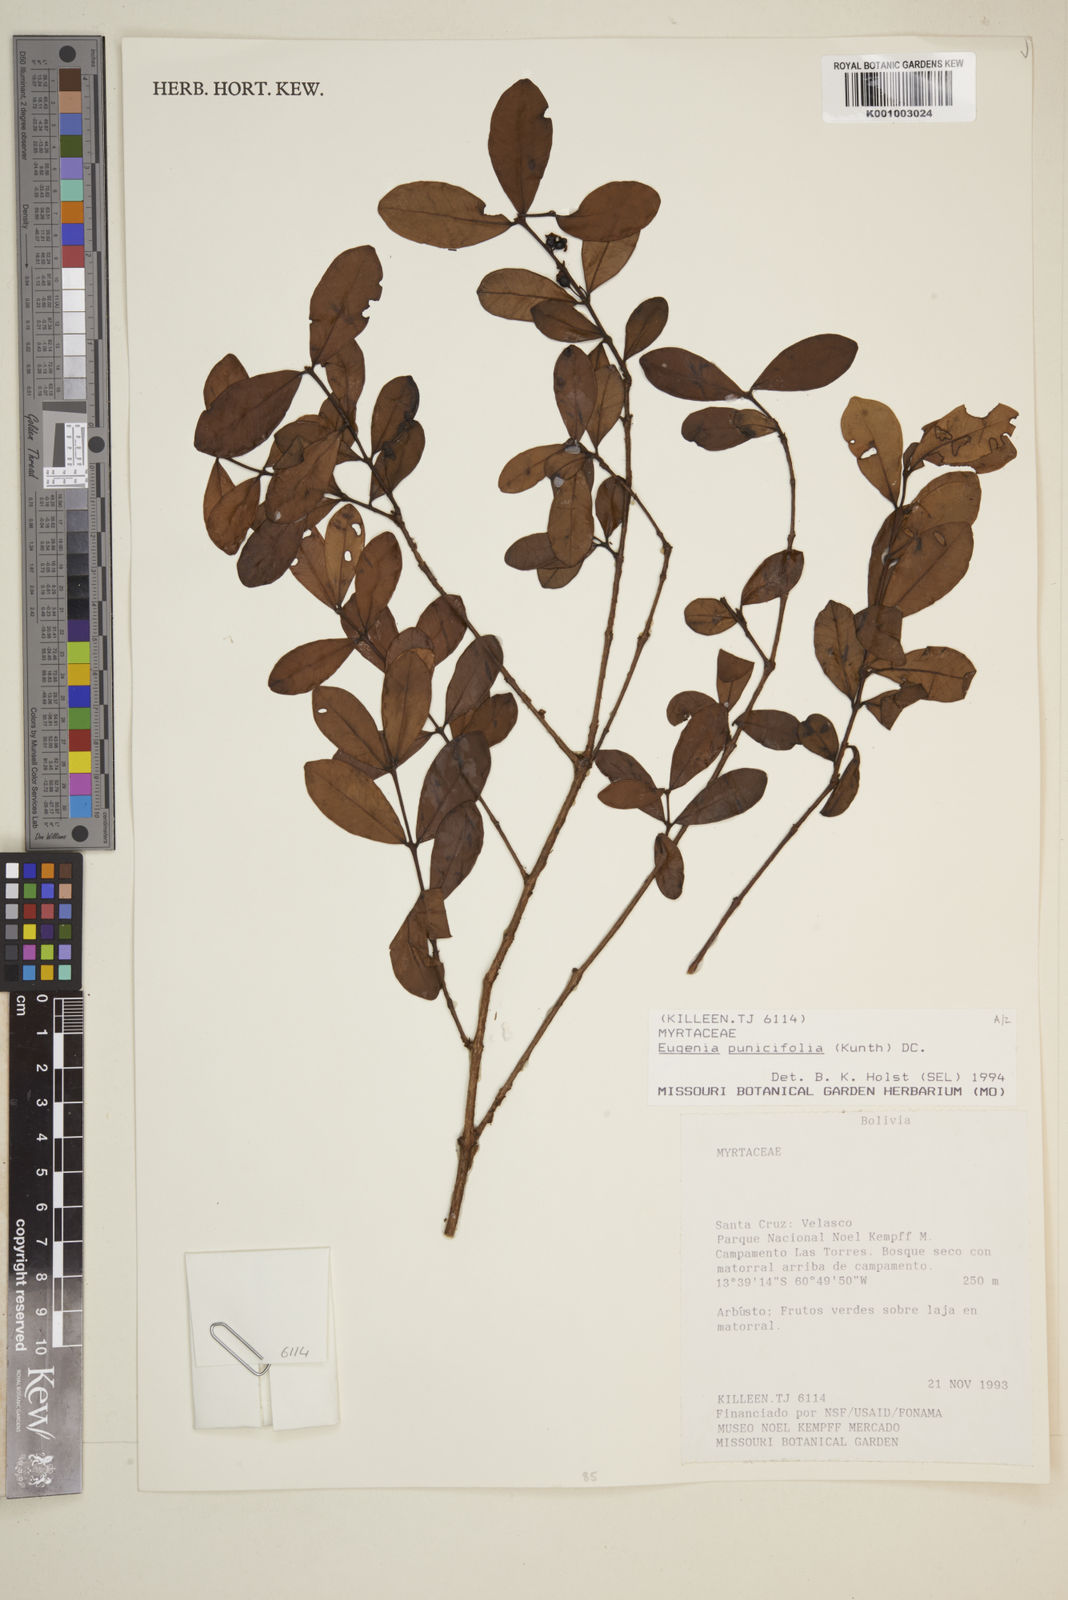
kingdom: Plantae
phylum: Tracheophyta
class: Magnoliopsida
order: Myrtales
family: Myrtaceae
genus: Eugenia
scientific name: Eugenia punicifolia
